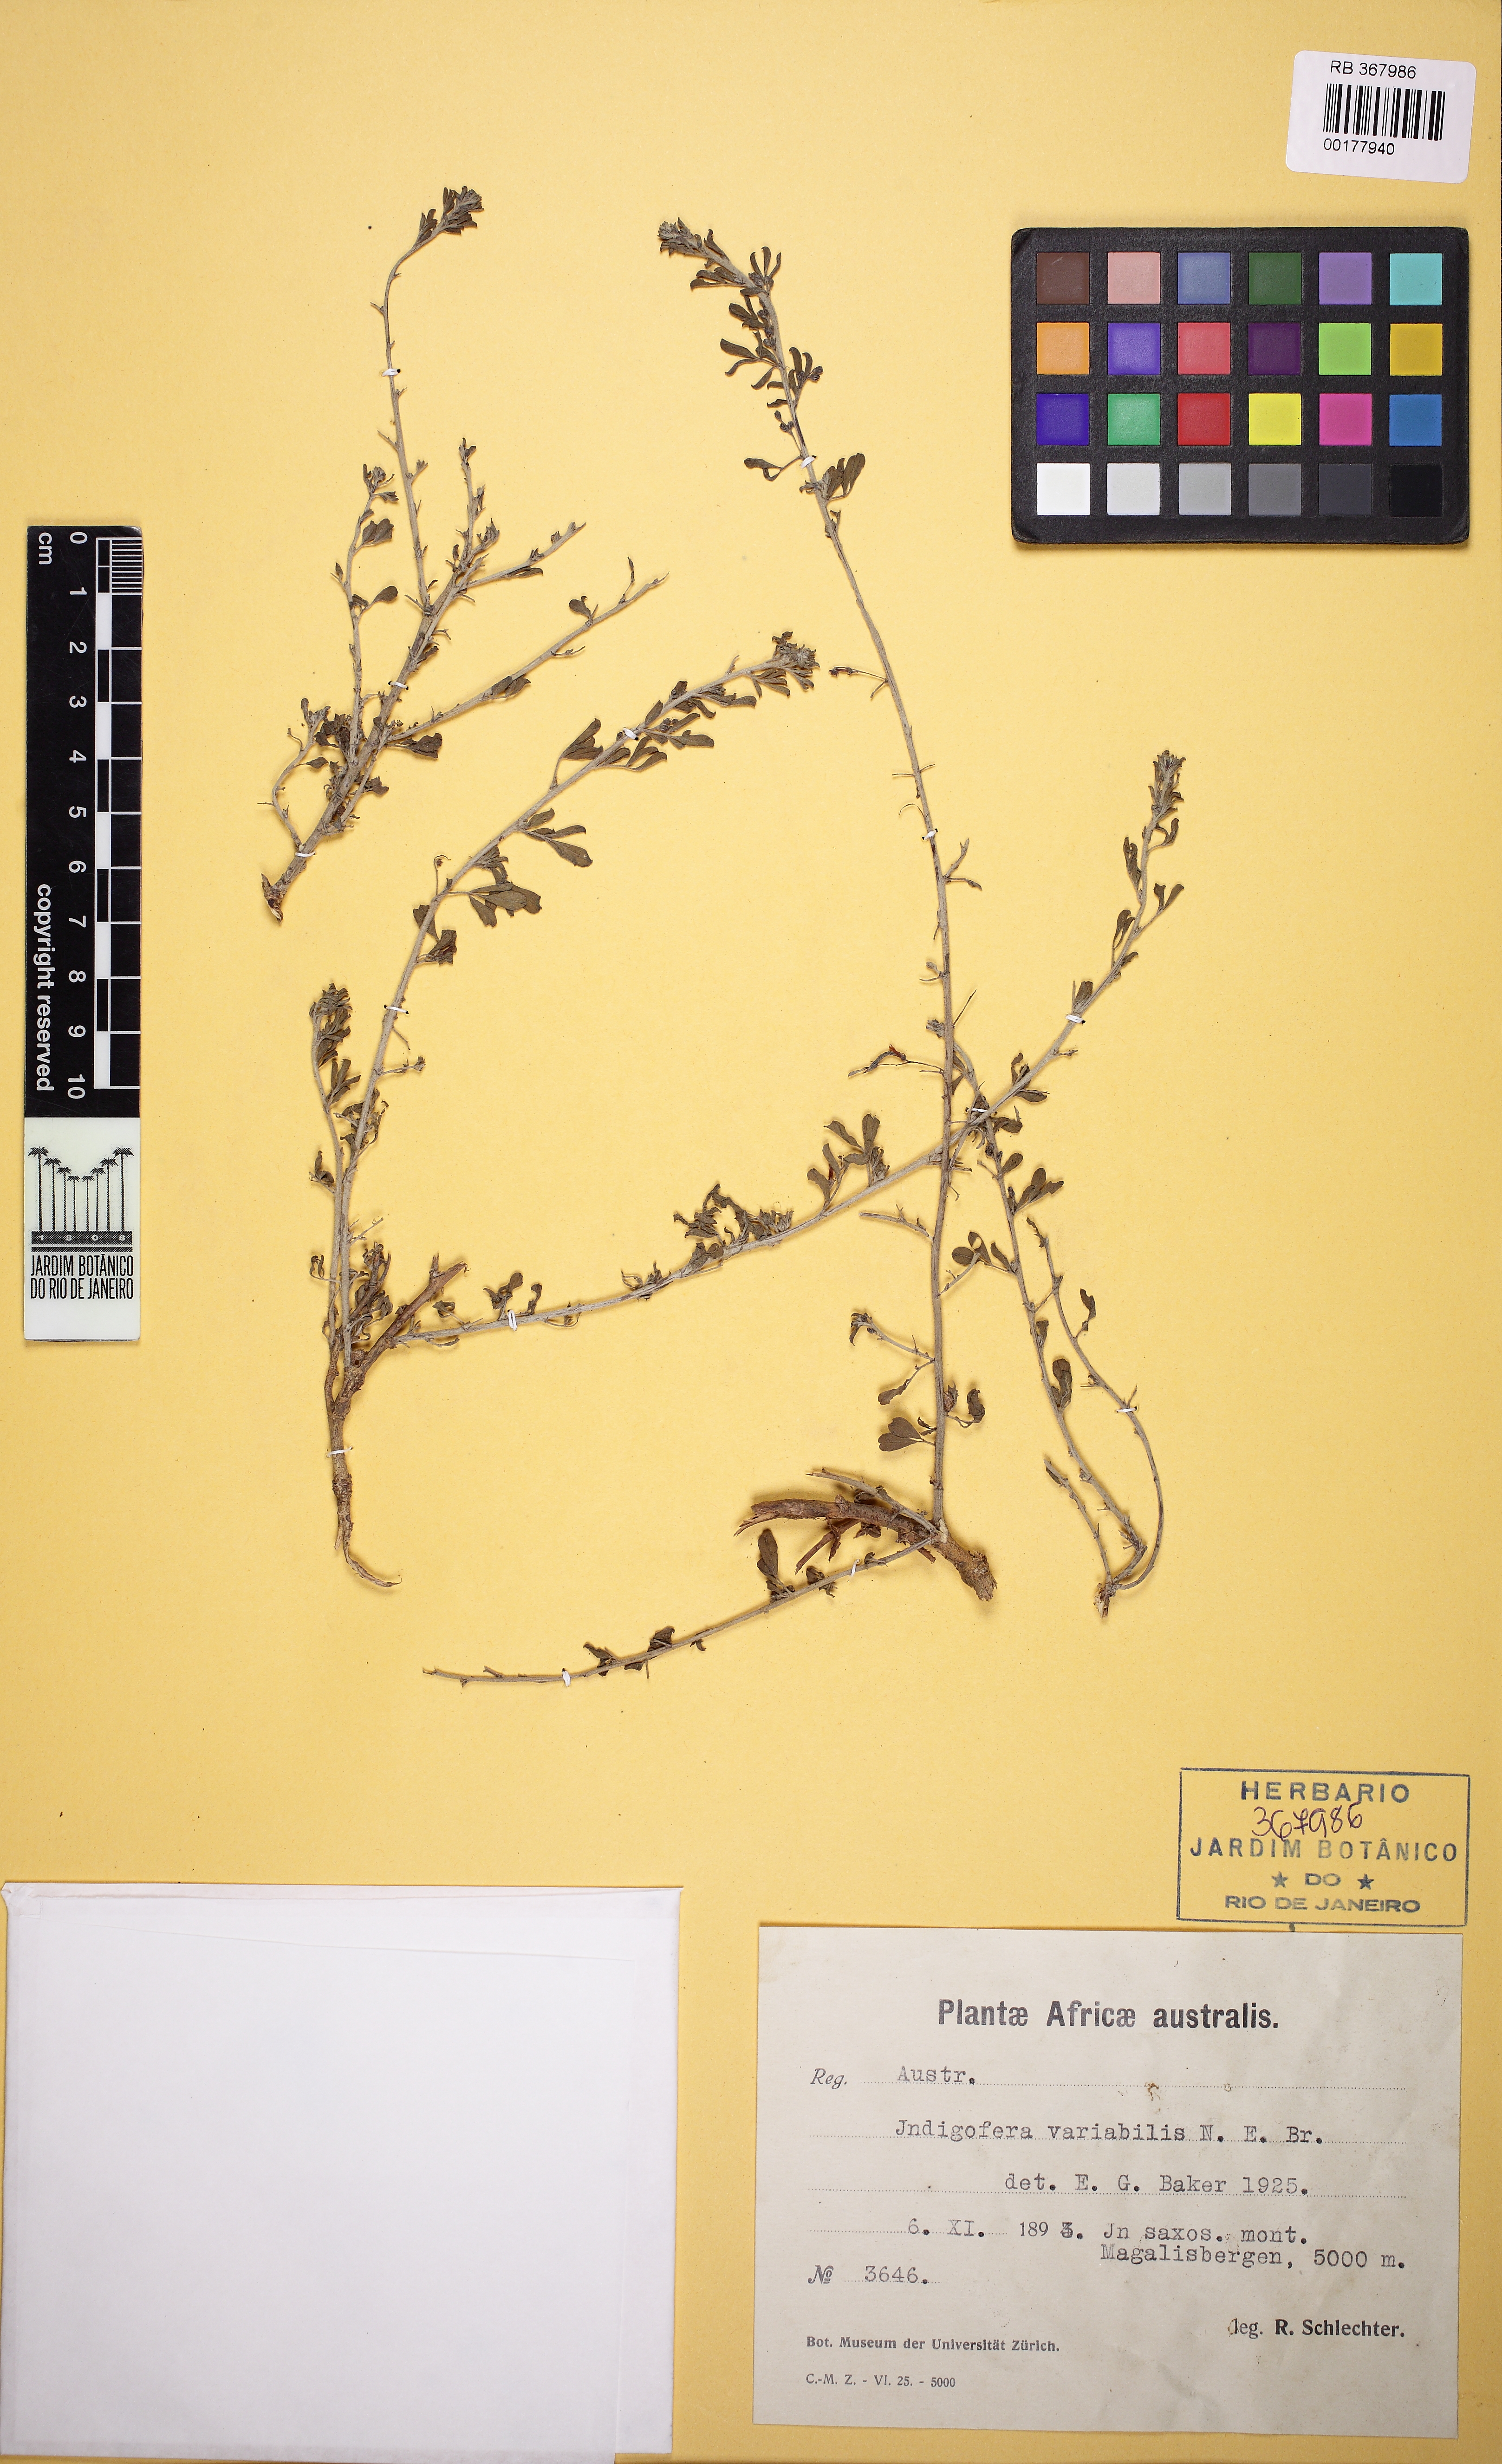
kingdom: Plantae
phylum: Tracheophyta
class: Magnoliopsida
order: Fabales
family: Fabaceae
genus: Microcharis
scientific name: Microcharis welwitschii
